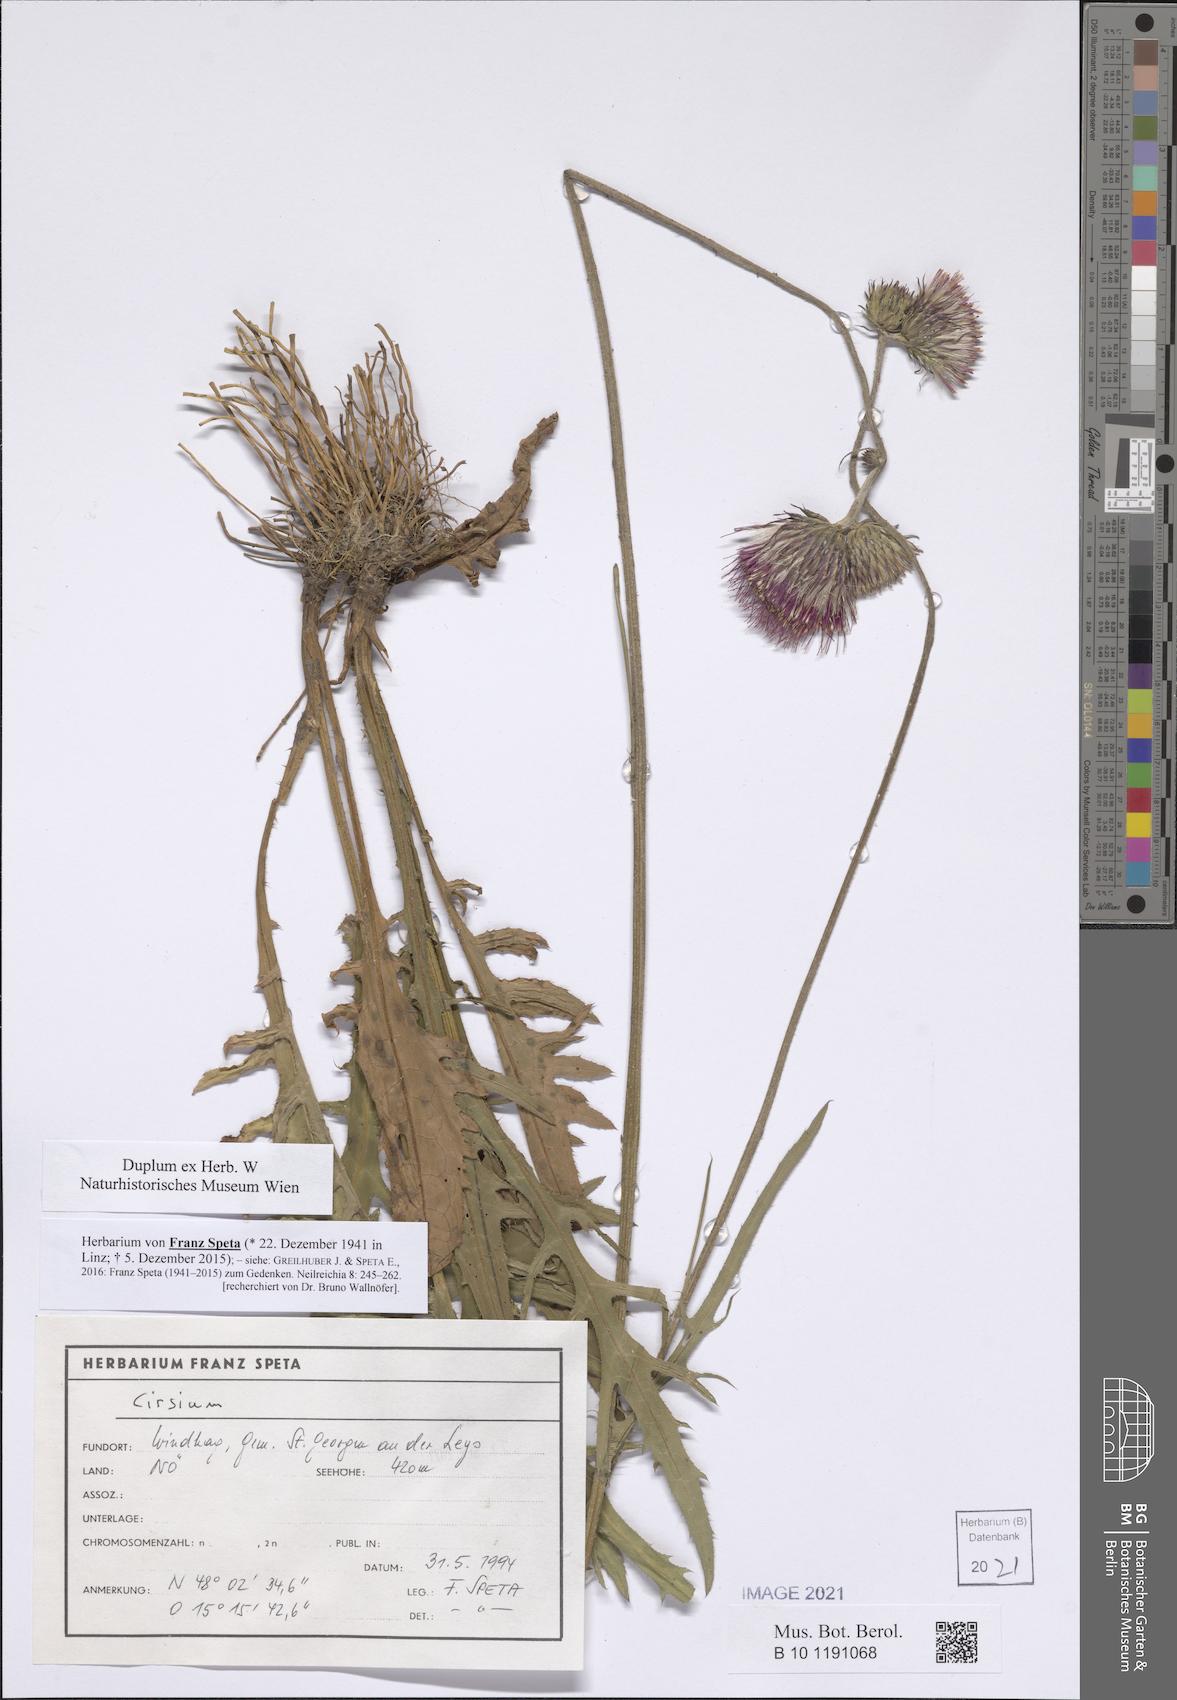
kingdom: Plantae
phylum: Tracheophyta
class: Magnoliopsida
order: Asterales
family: Asteraceae
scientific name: Asteraceae
